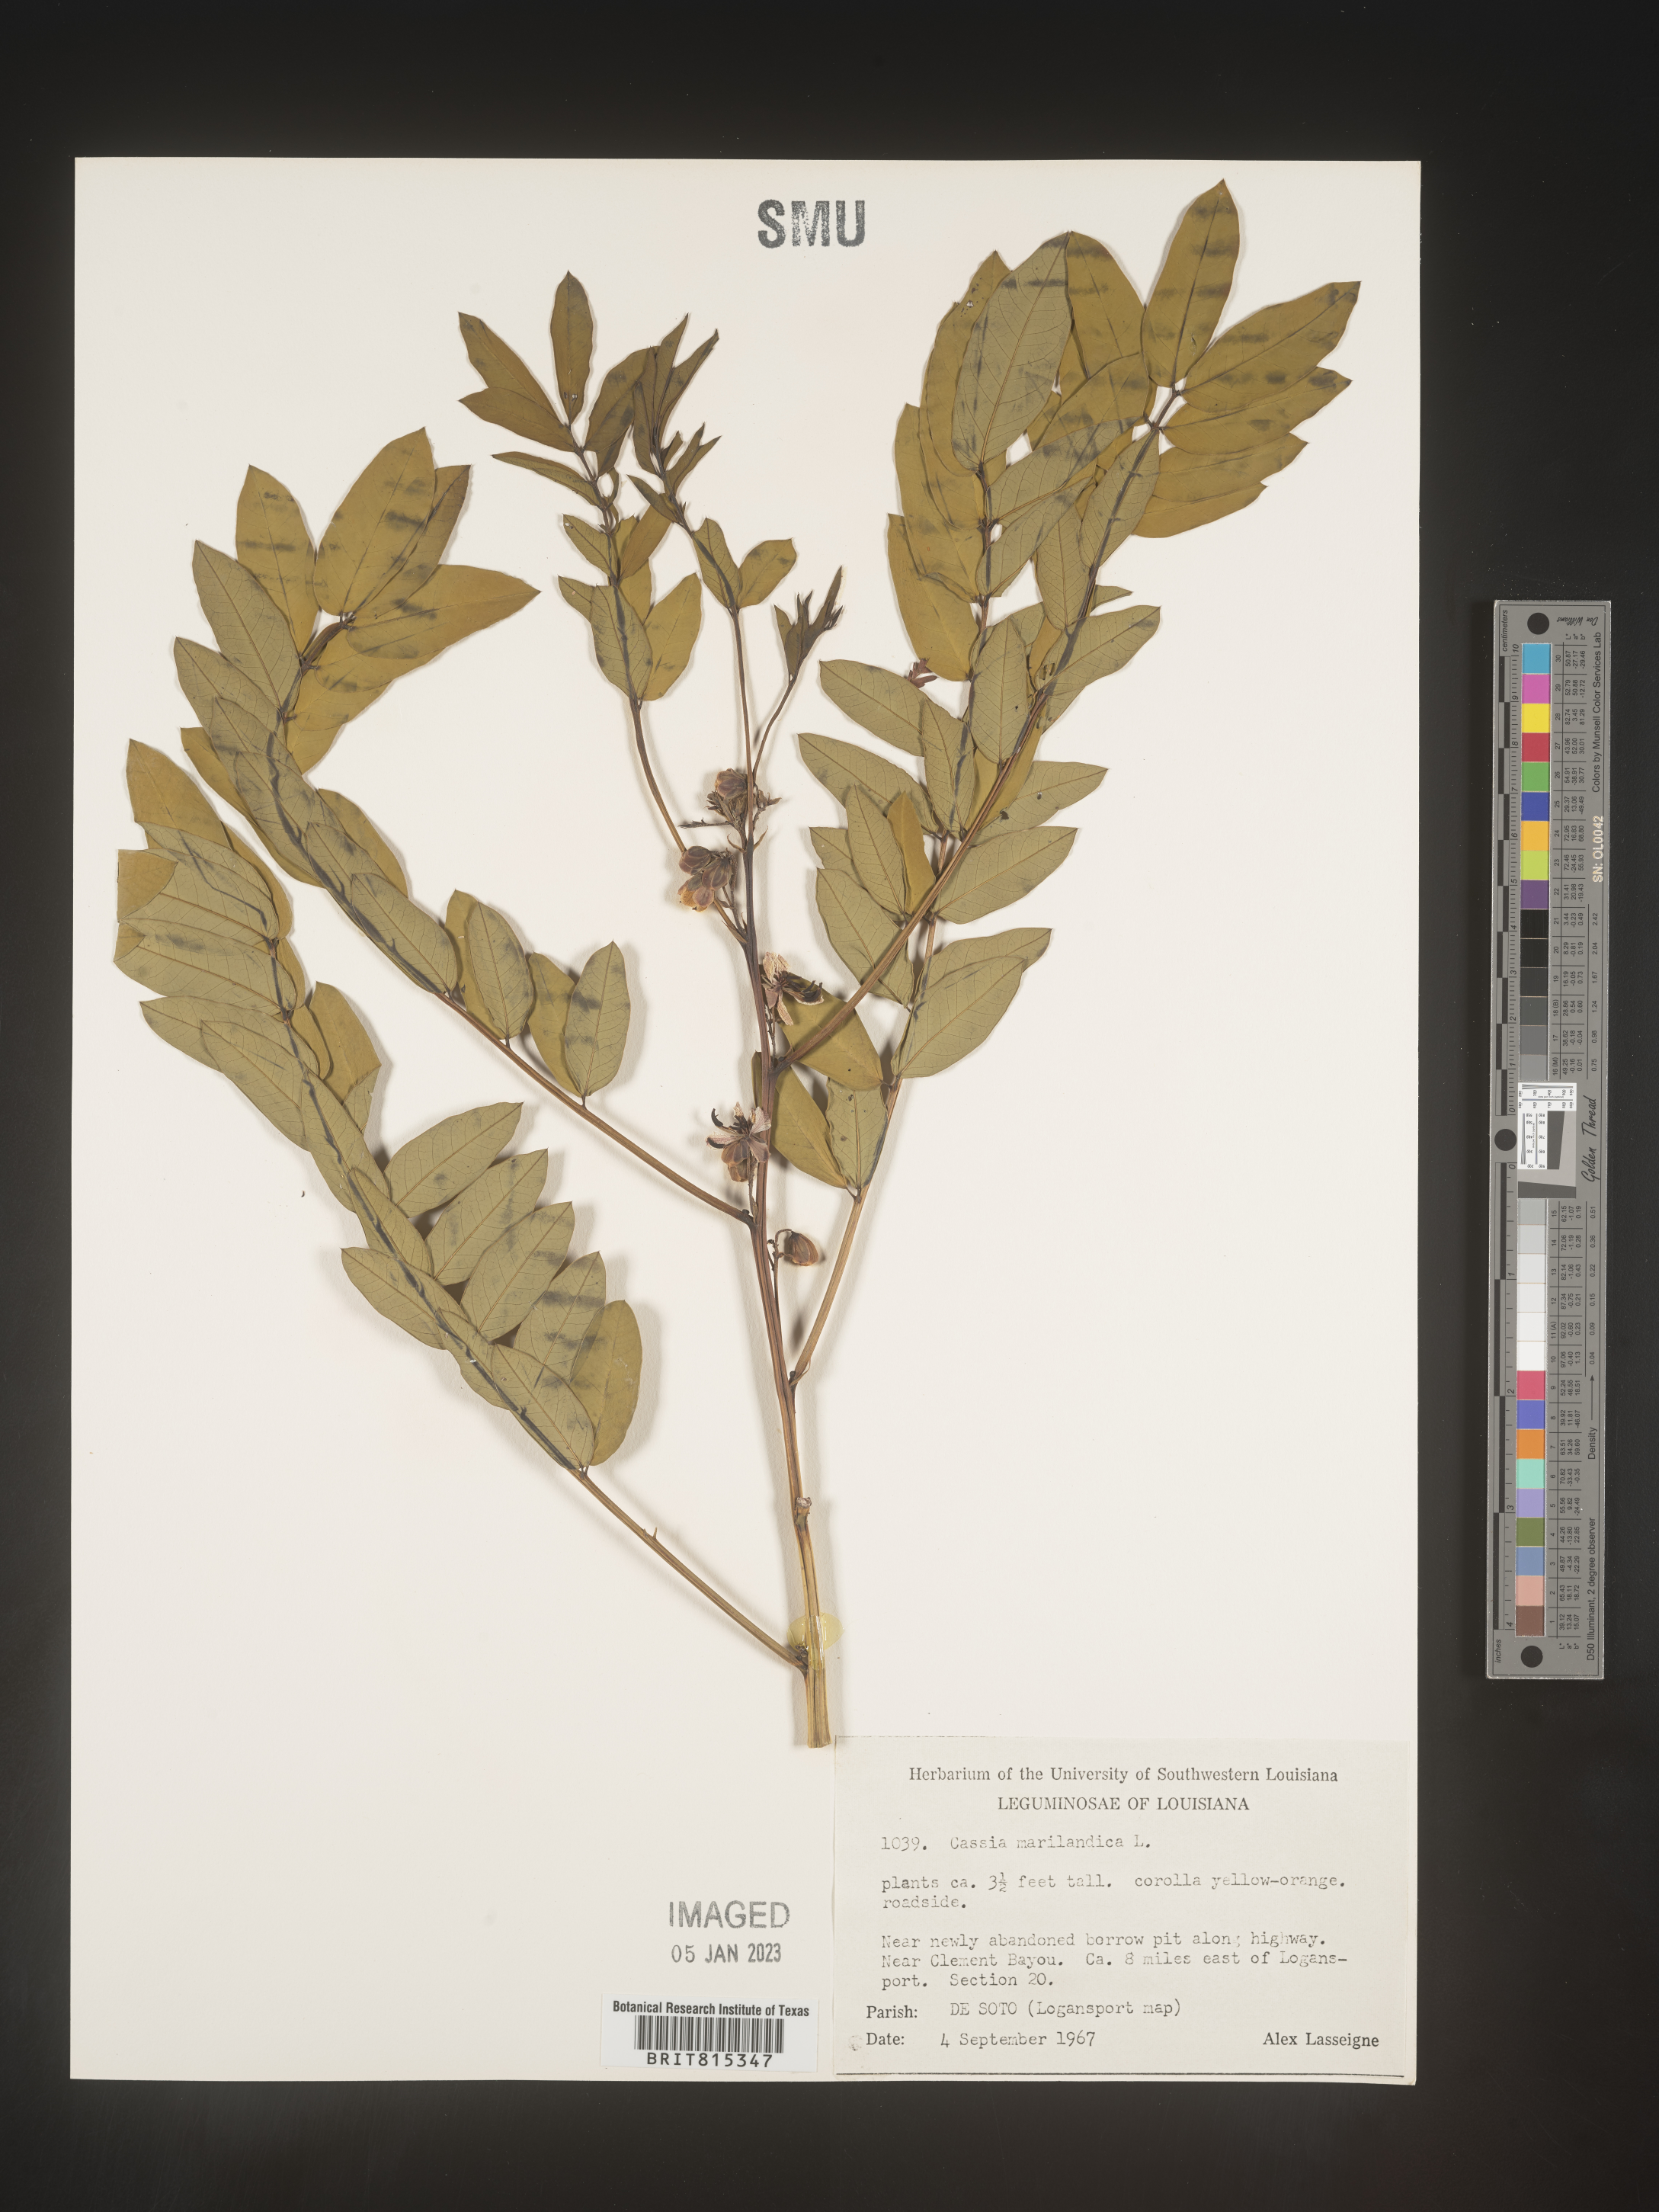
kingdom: Plantae
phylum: Tracheophyta
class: Magnoliopsida
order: Fabales
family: Fabaceae
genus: Senna
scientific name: Senna marilandica
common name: American senna
